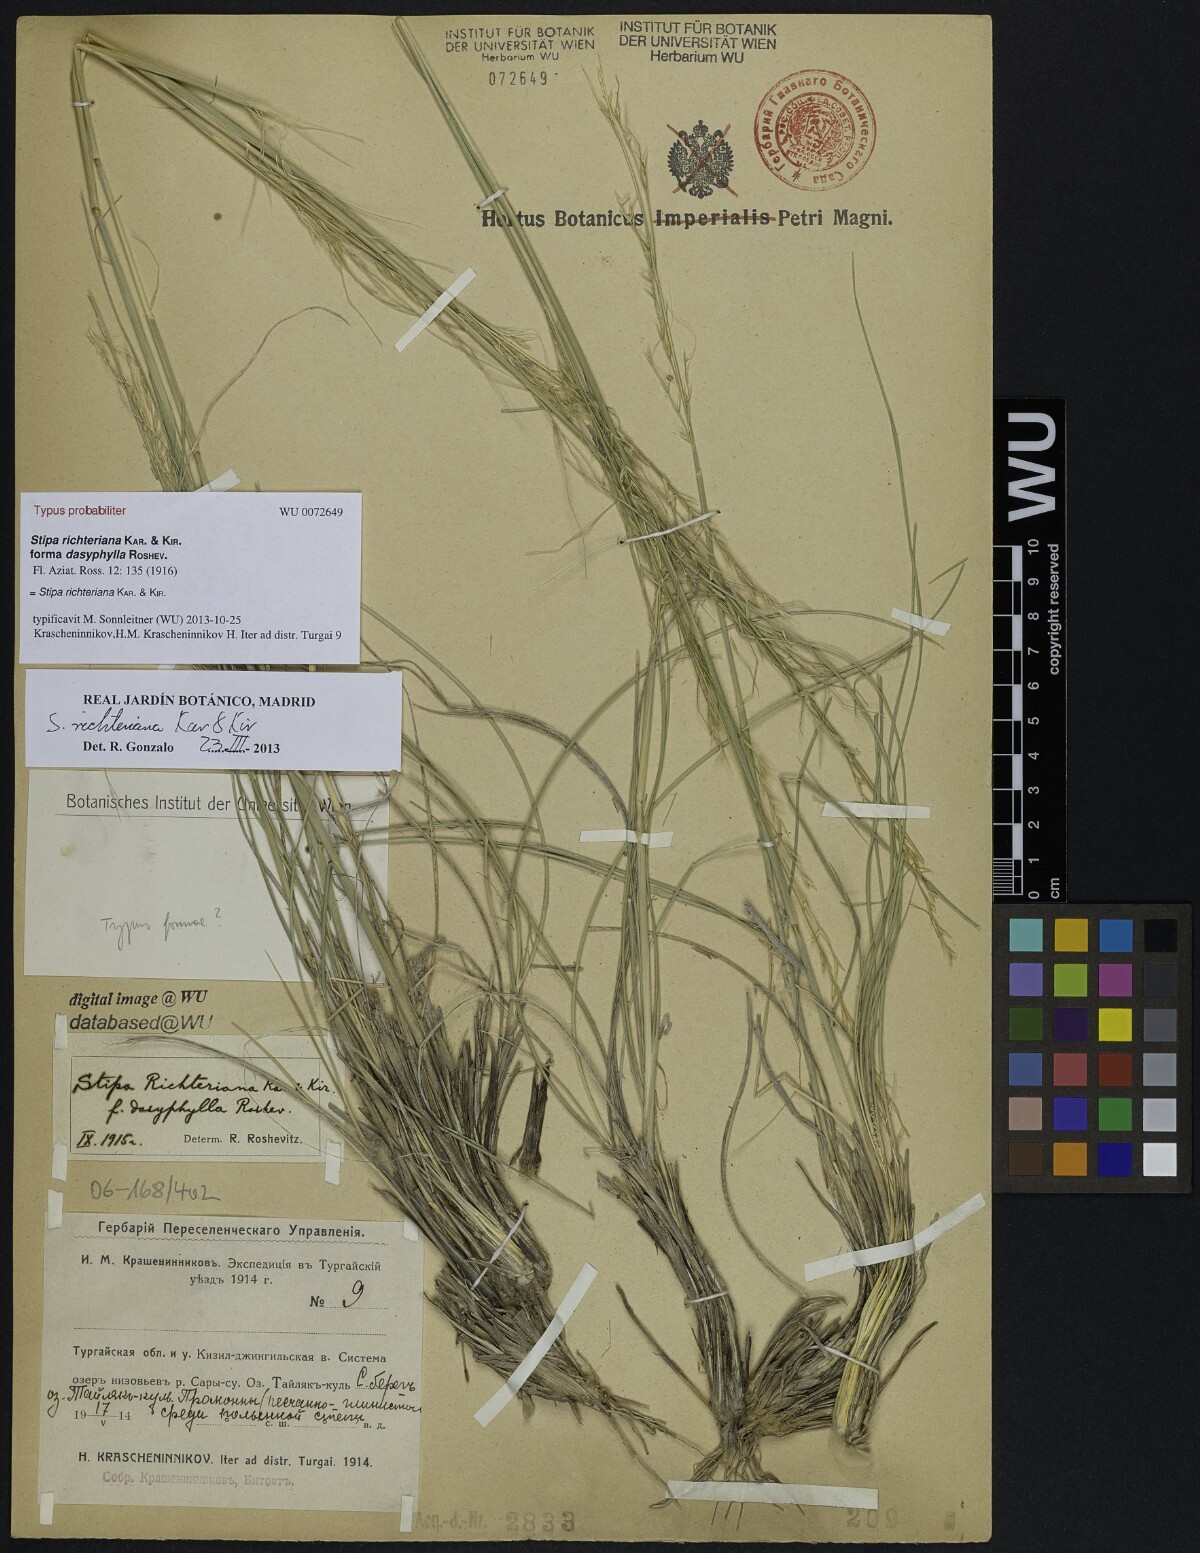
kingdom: Plantae
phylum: Tracheophyta
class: Liliopsida
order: Poales
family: Poaceae
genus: Stipa
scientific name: Stipa richteriana
